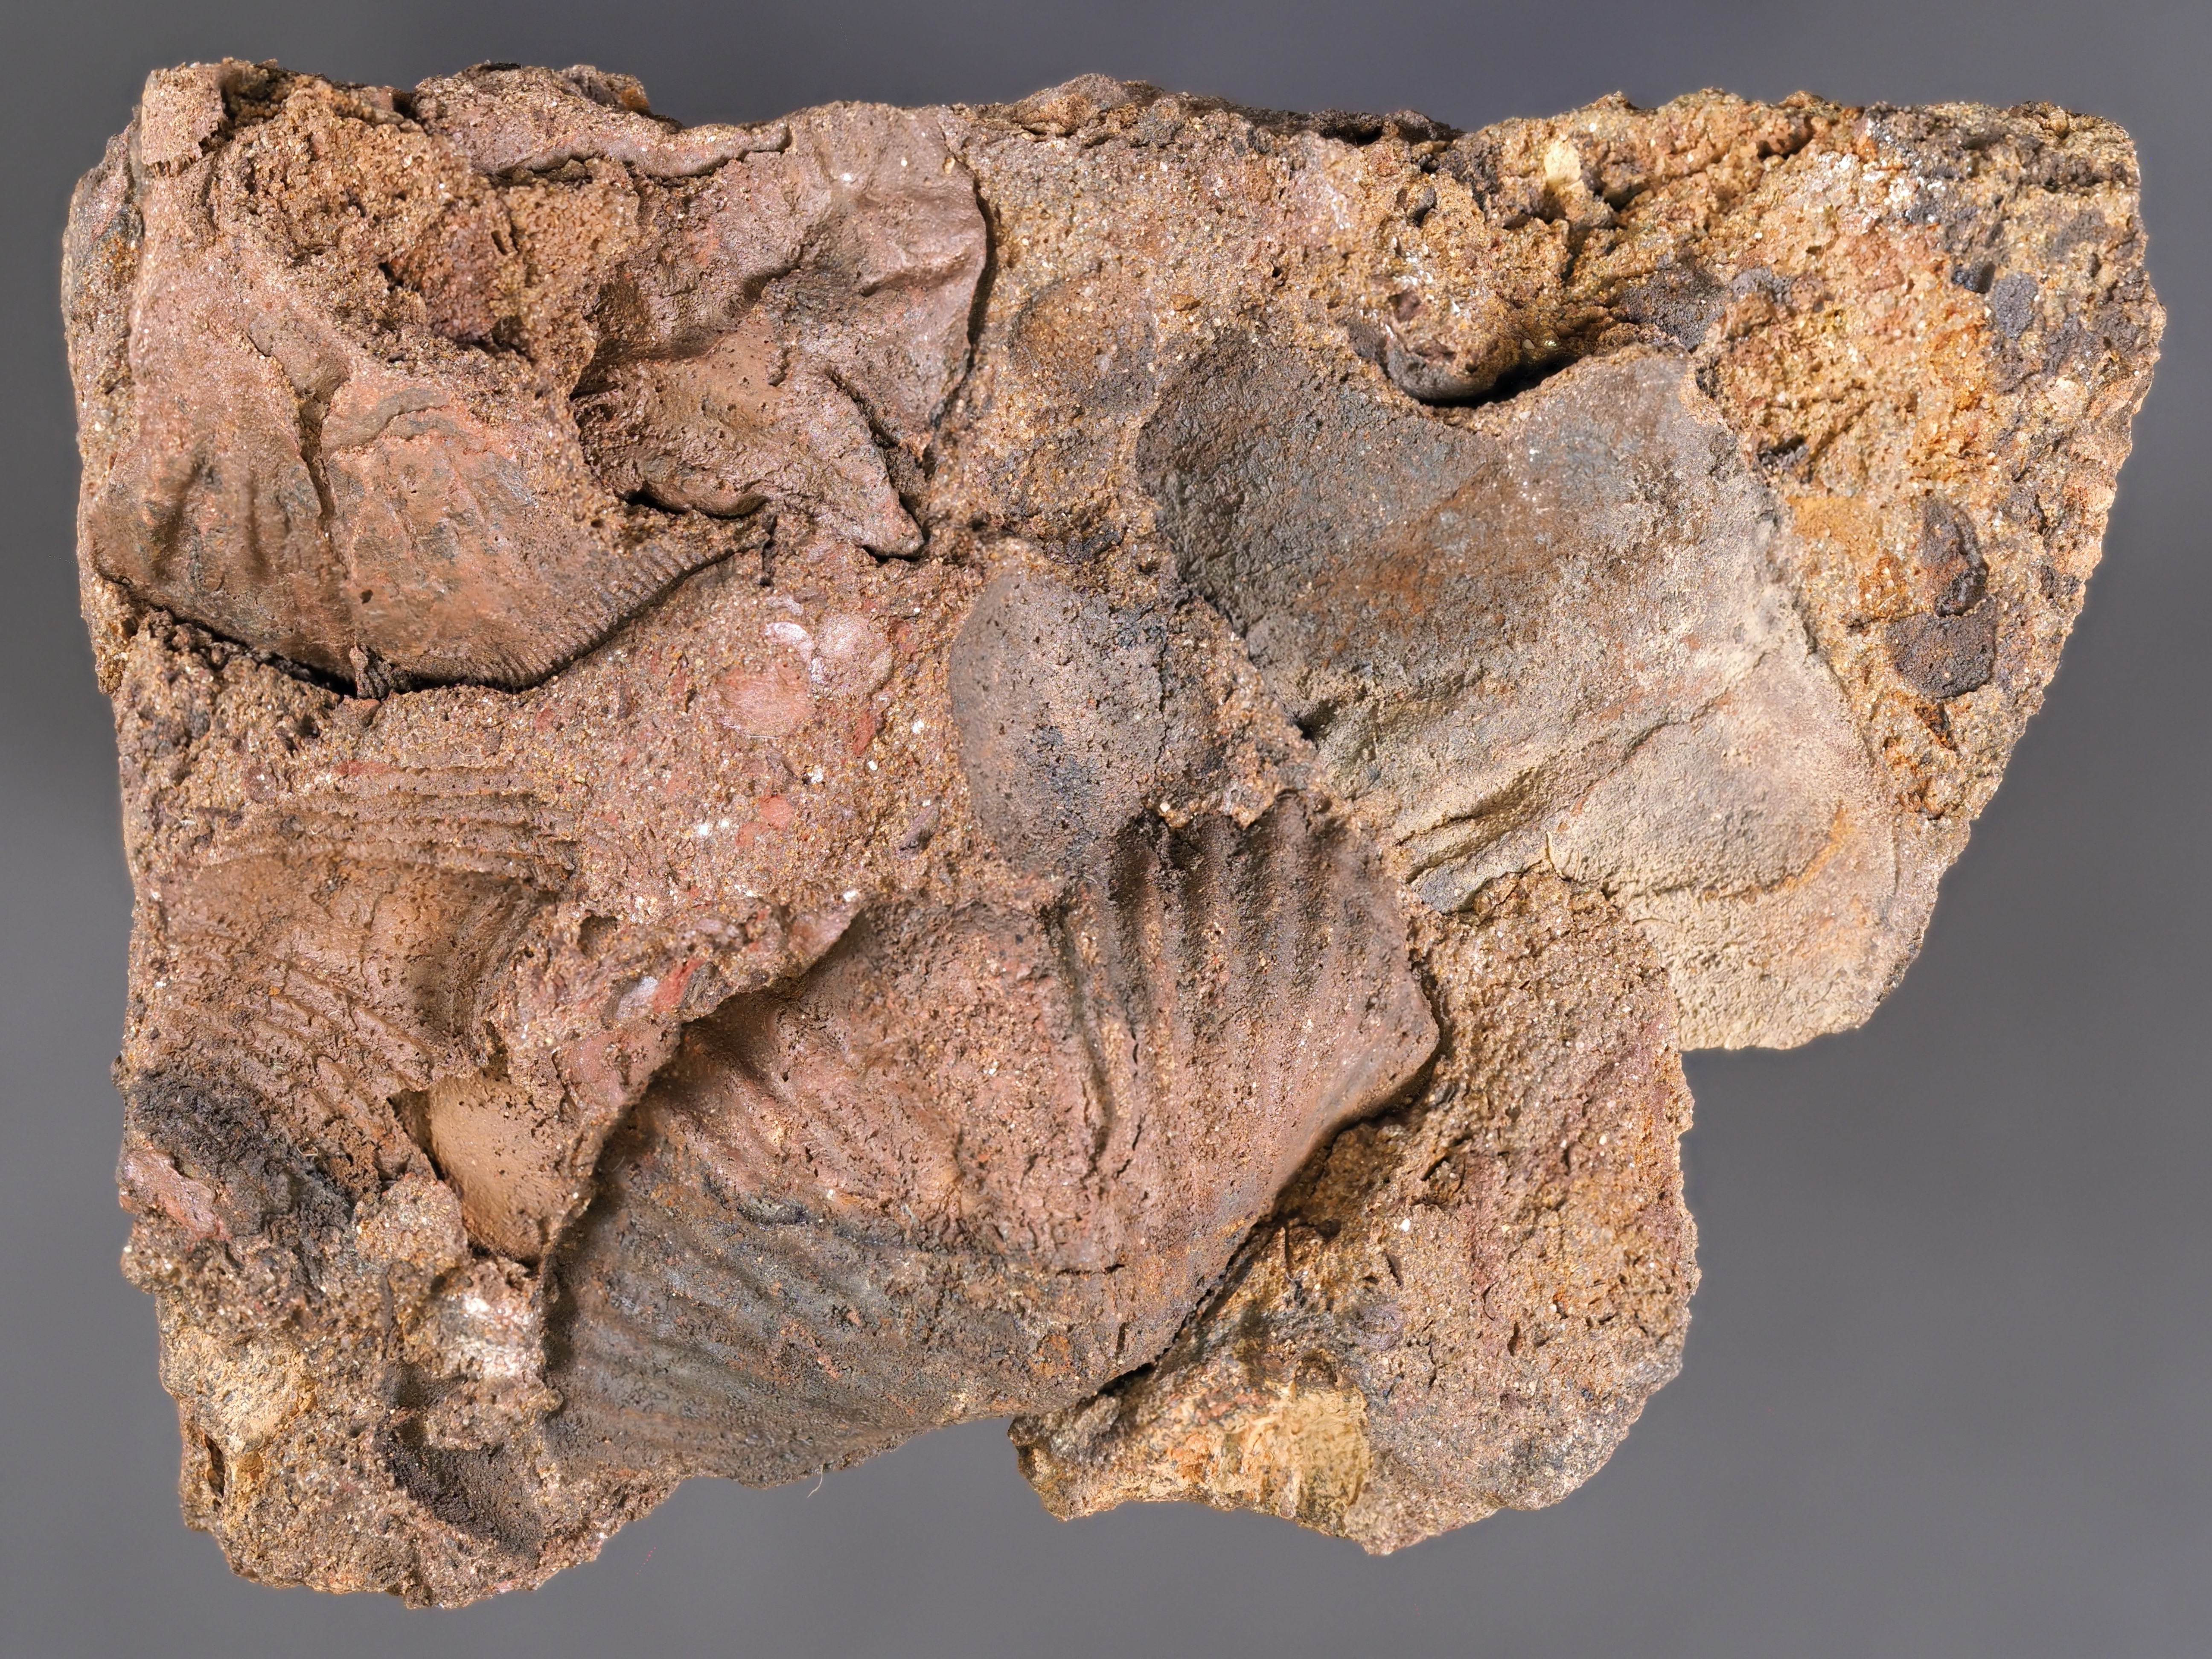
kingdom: Animalia
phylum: Brachiopoda
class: Rhynchonellata
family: Delthyrididae
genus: Brachyspirifer
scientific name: Brachyspirifer
